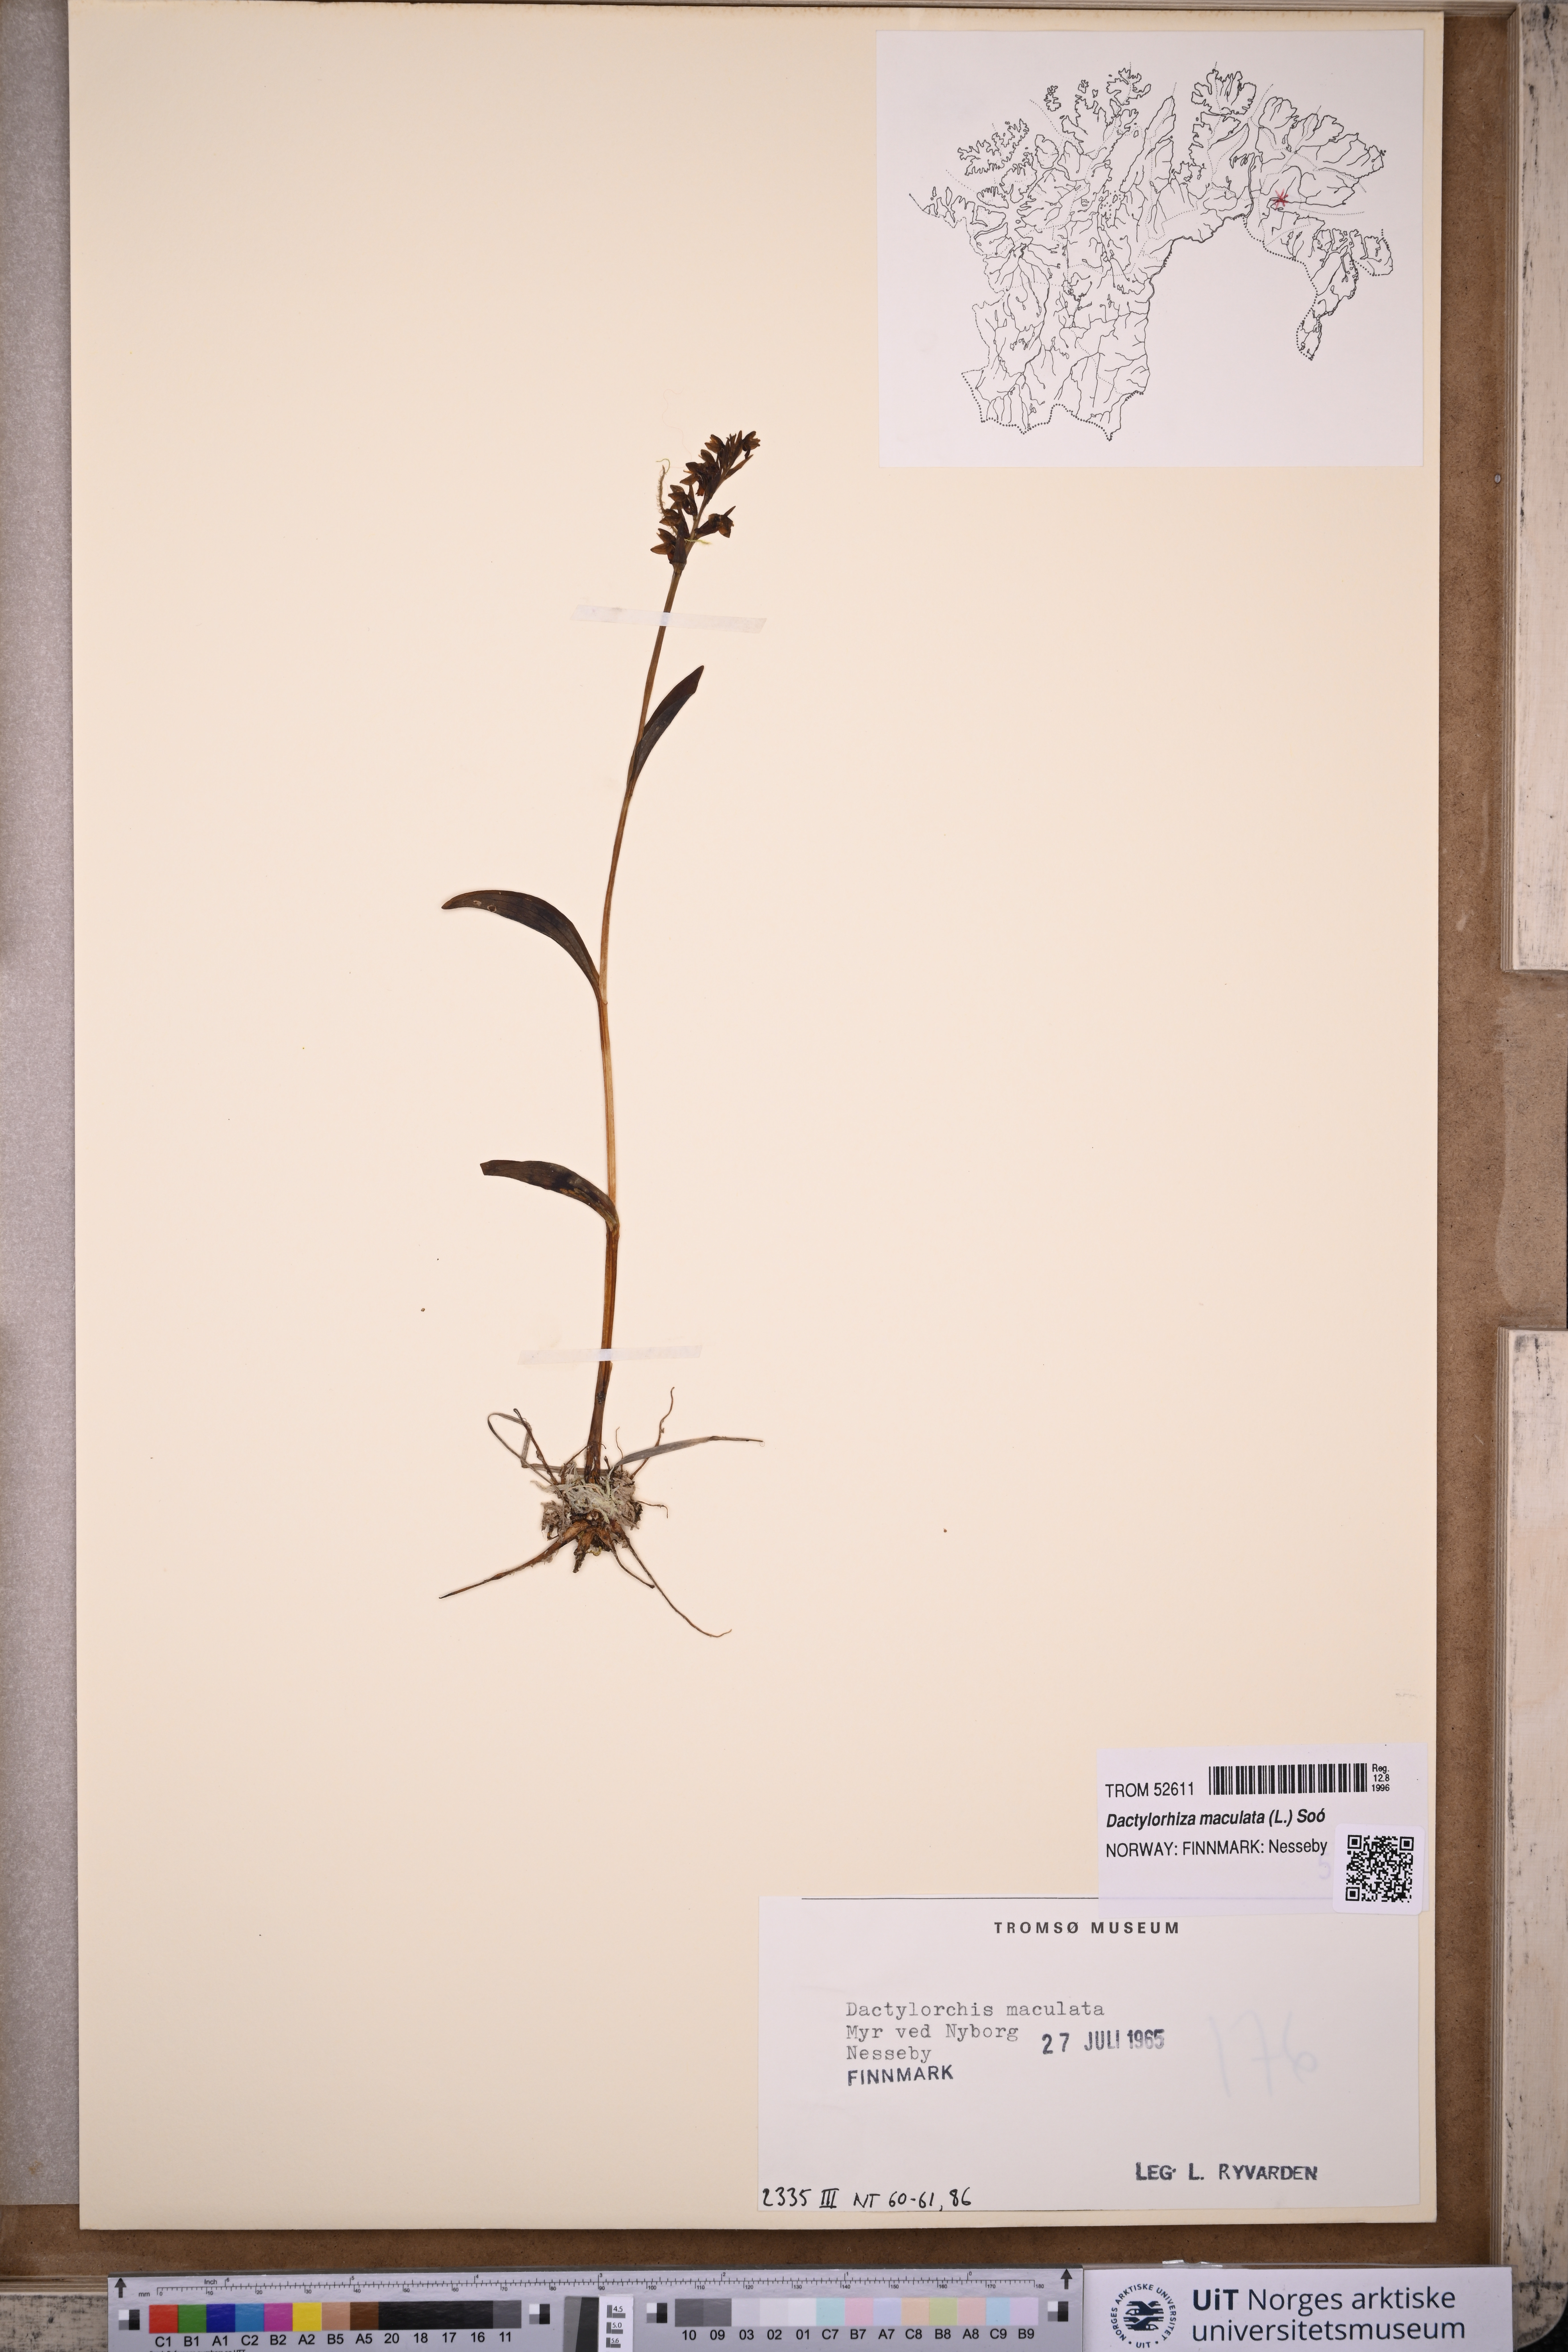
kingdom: Plantae
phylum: Tracheophyta
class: Liliopsida
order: Asparagales
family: Orchidaceae
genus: Dactylorhiza
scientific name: Dactylorhiza maculata
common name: Heath spotted-orchid
